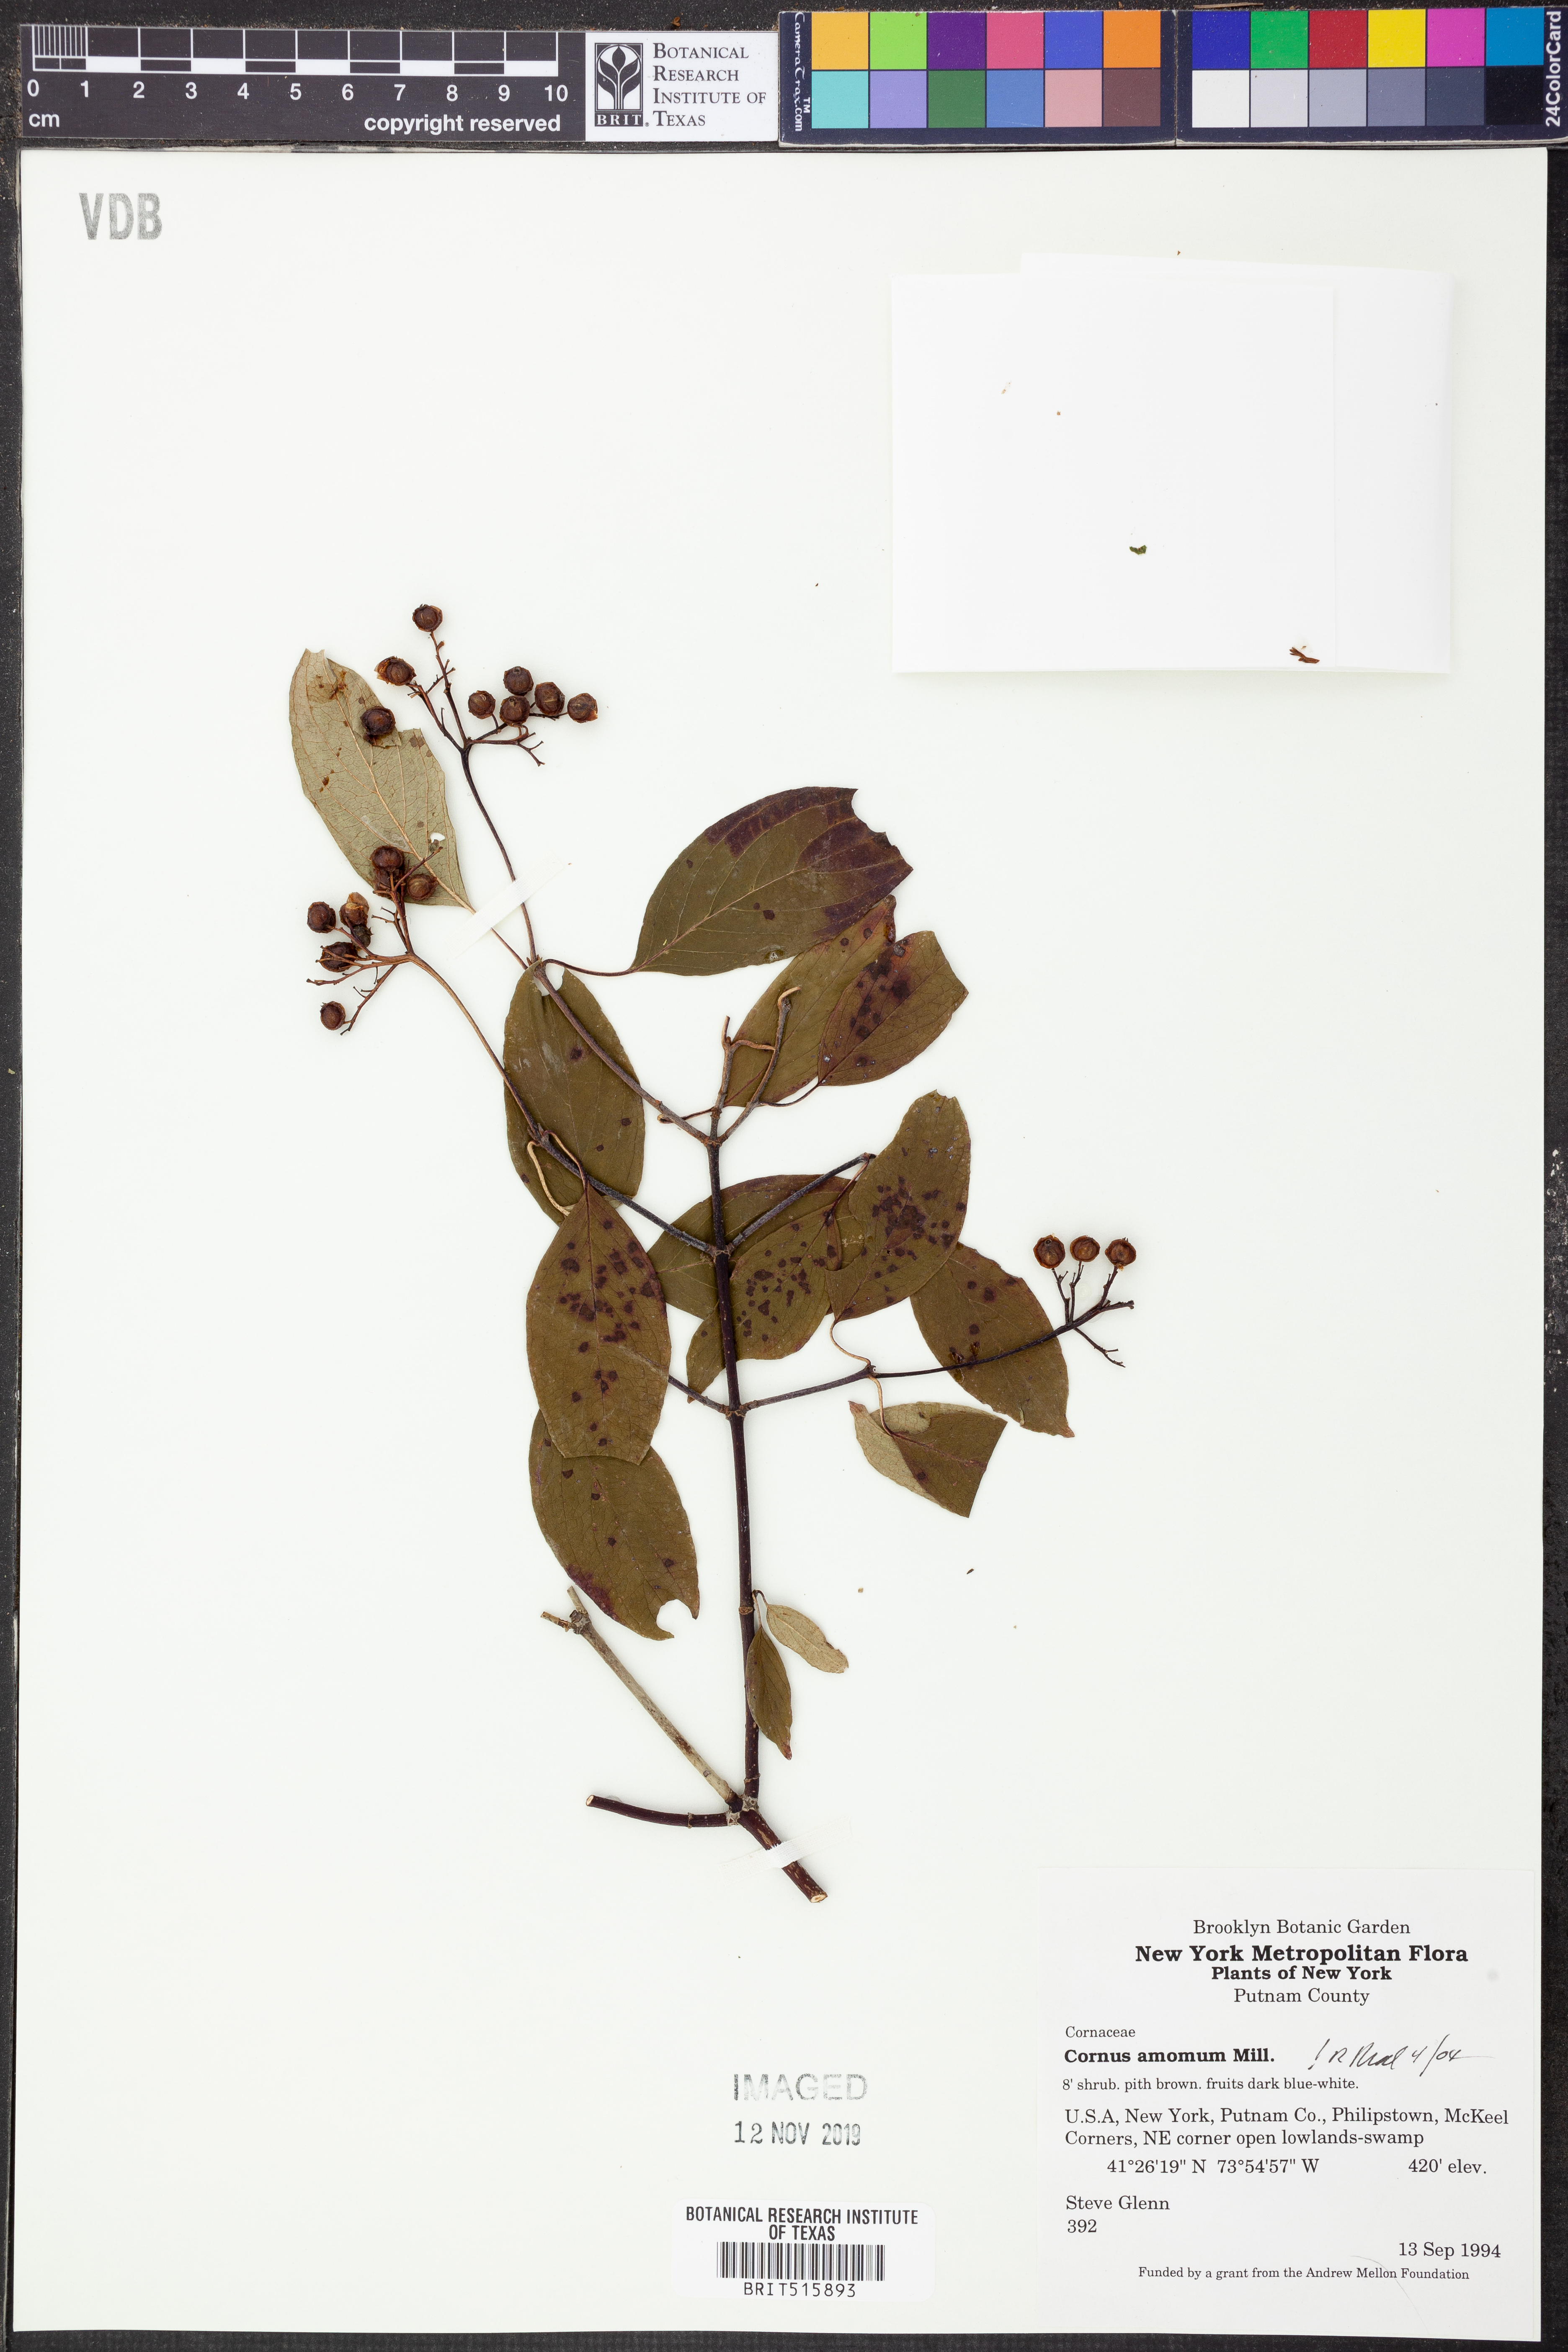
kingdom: Plantae
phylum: Tracheophyta
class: Magnoliopsida
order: Cornales
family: Cornaceae
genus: Cornus
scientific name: Cornus amomum
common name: Silky dogwood
